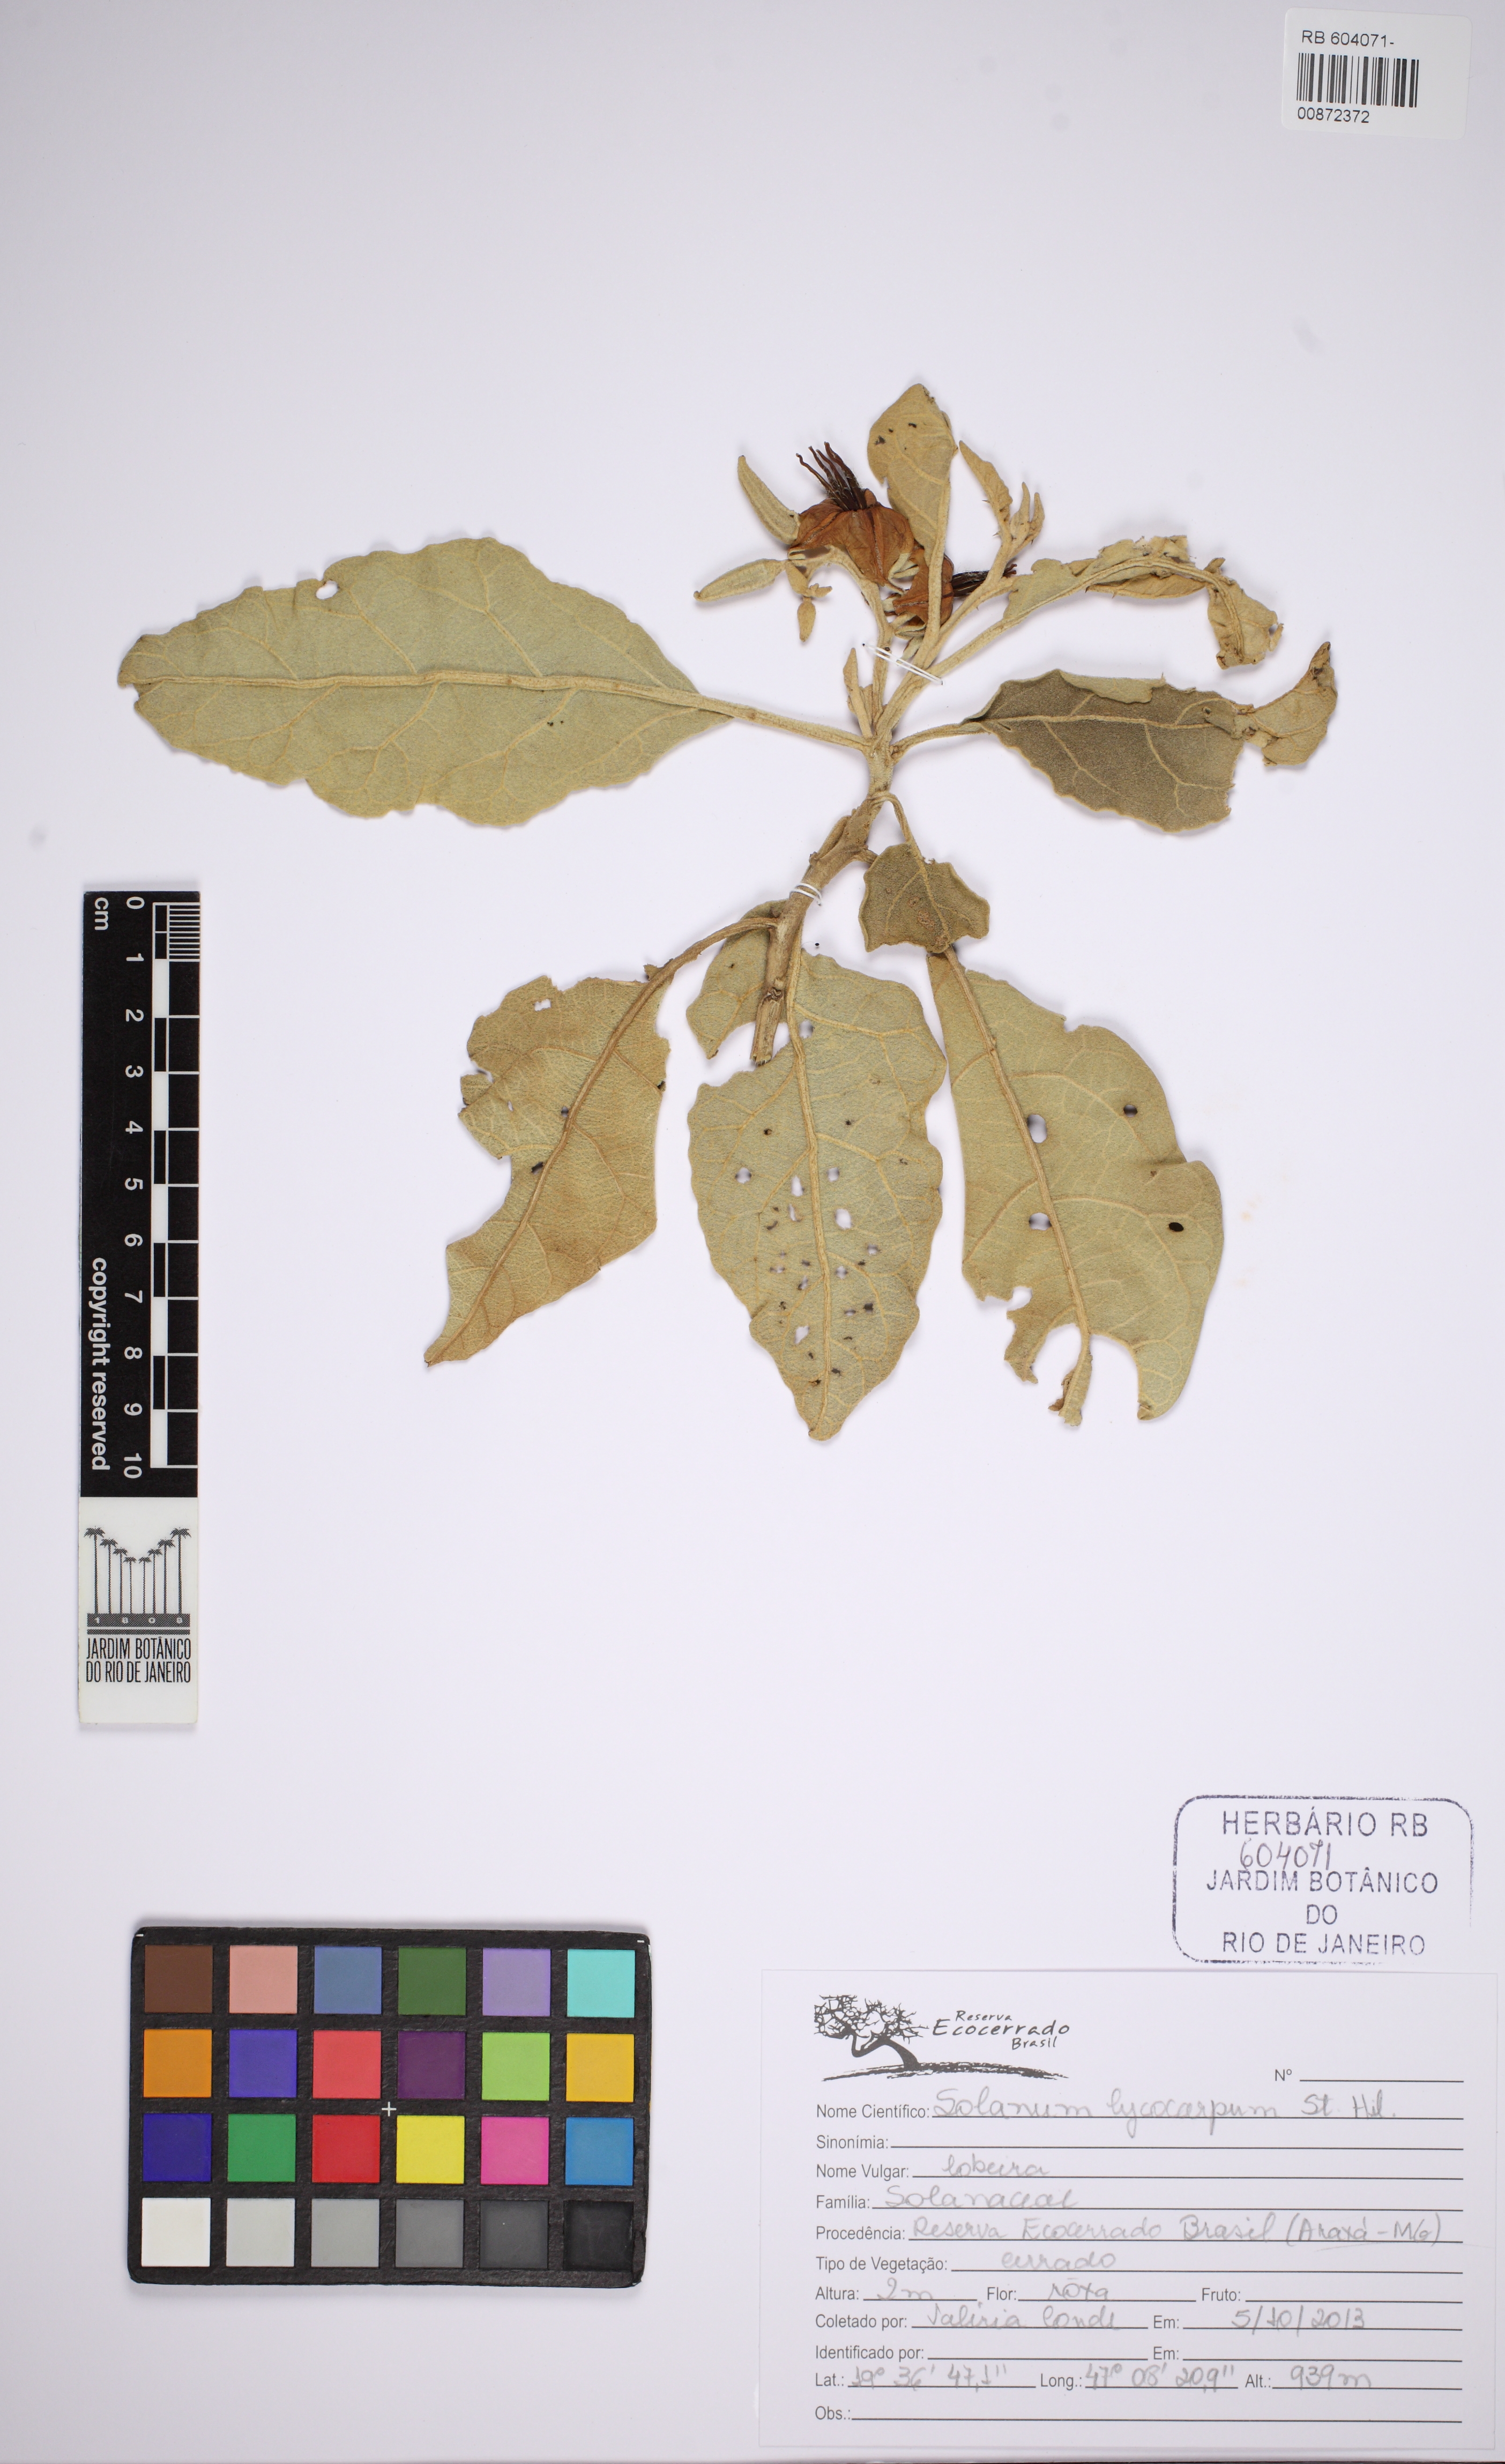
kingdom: Plantae
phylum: Tracheophyta
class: Magnoliopsida
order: Solanales
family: Solanaceae
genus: Solanum
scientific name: Solanum lycocarpum
